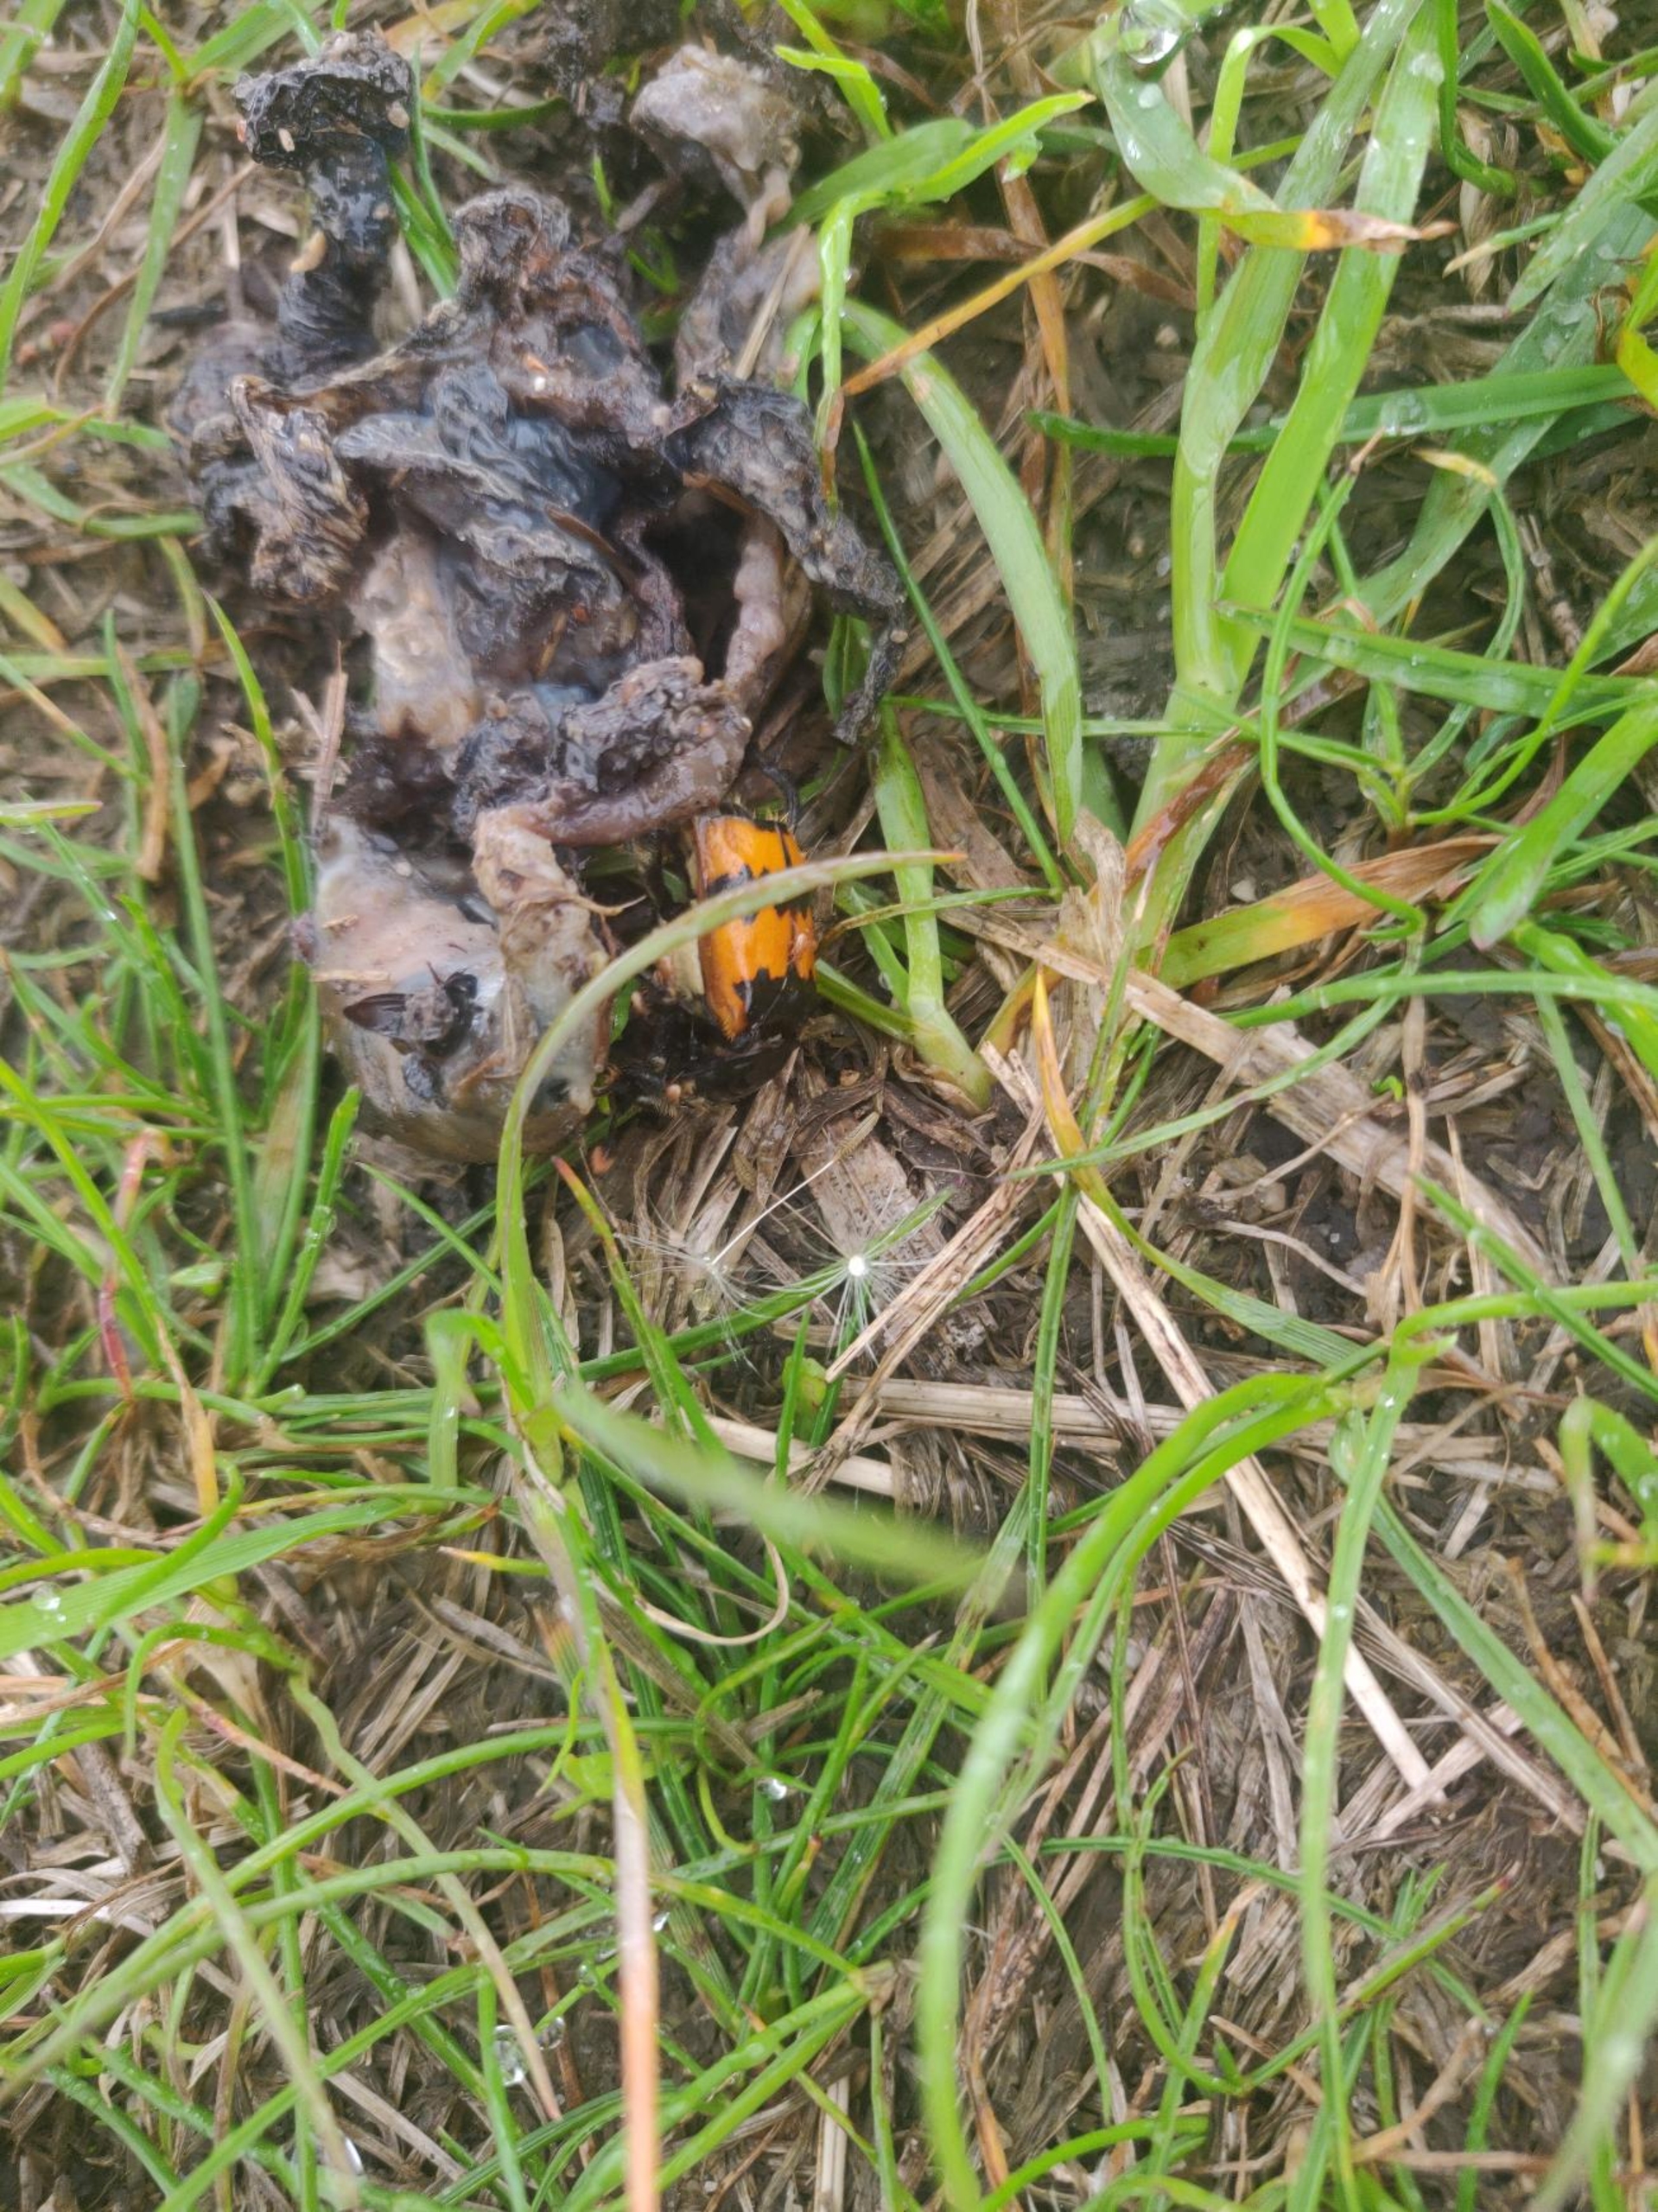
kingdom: Animalia
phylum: Arthropoda
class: Insecta
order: Coleoptera
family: Staphylinidae
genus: Nicrophorus
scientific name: Nicrophorus vespillo
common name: Krumbenet ådselgraver
